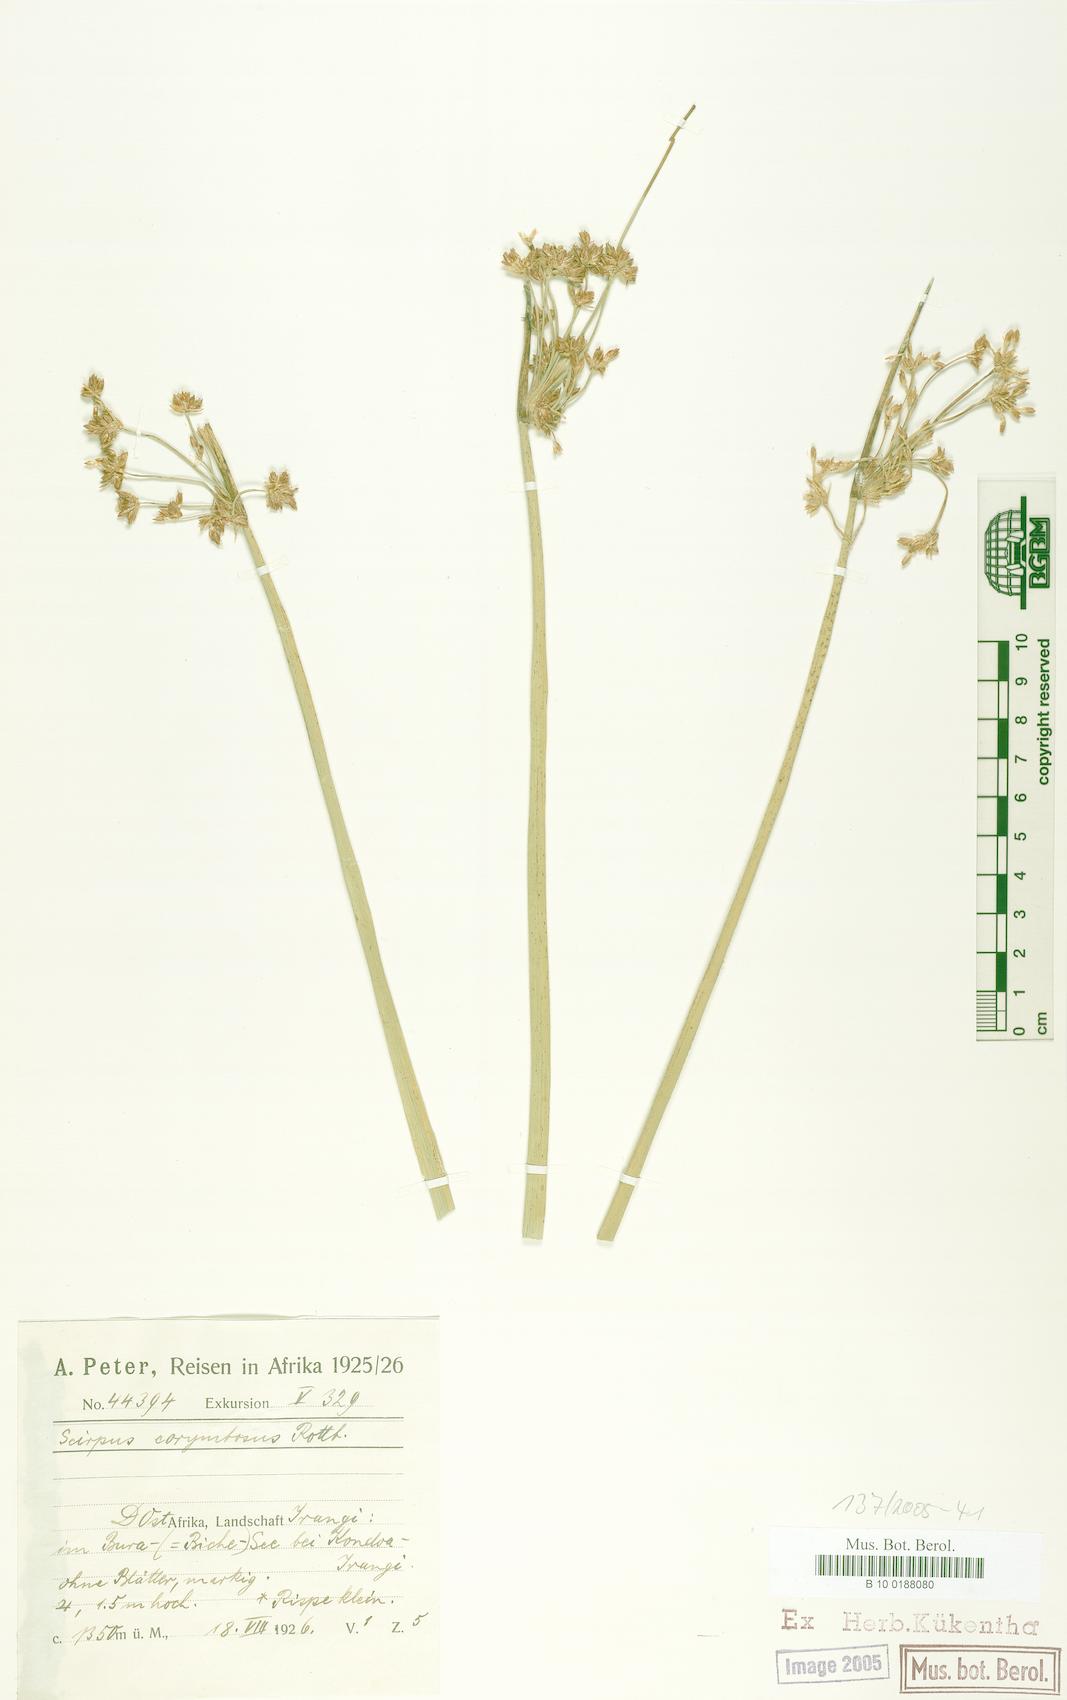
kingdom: Plantae
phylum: Tracheophyta
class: Liliopsida
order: Poales
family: Cyperaceae
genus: Schoenoplectiella
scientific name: Schoenoplectiella corymbosa
